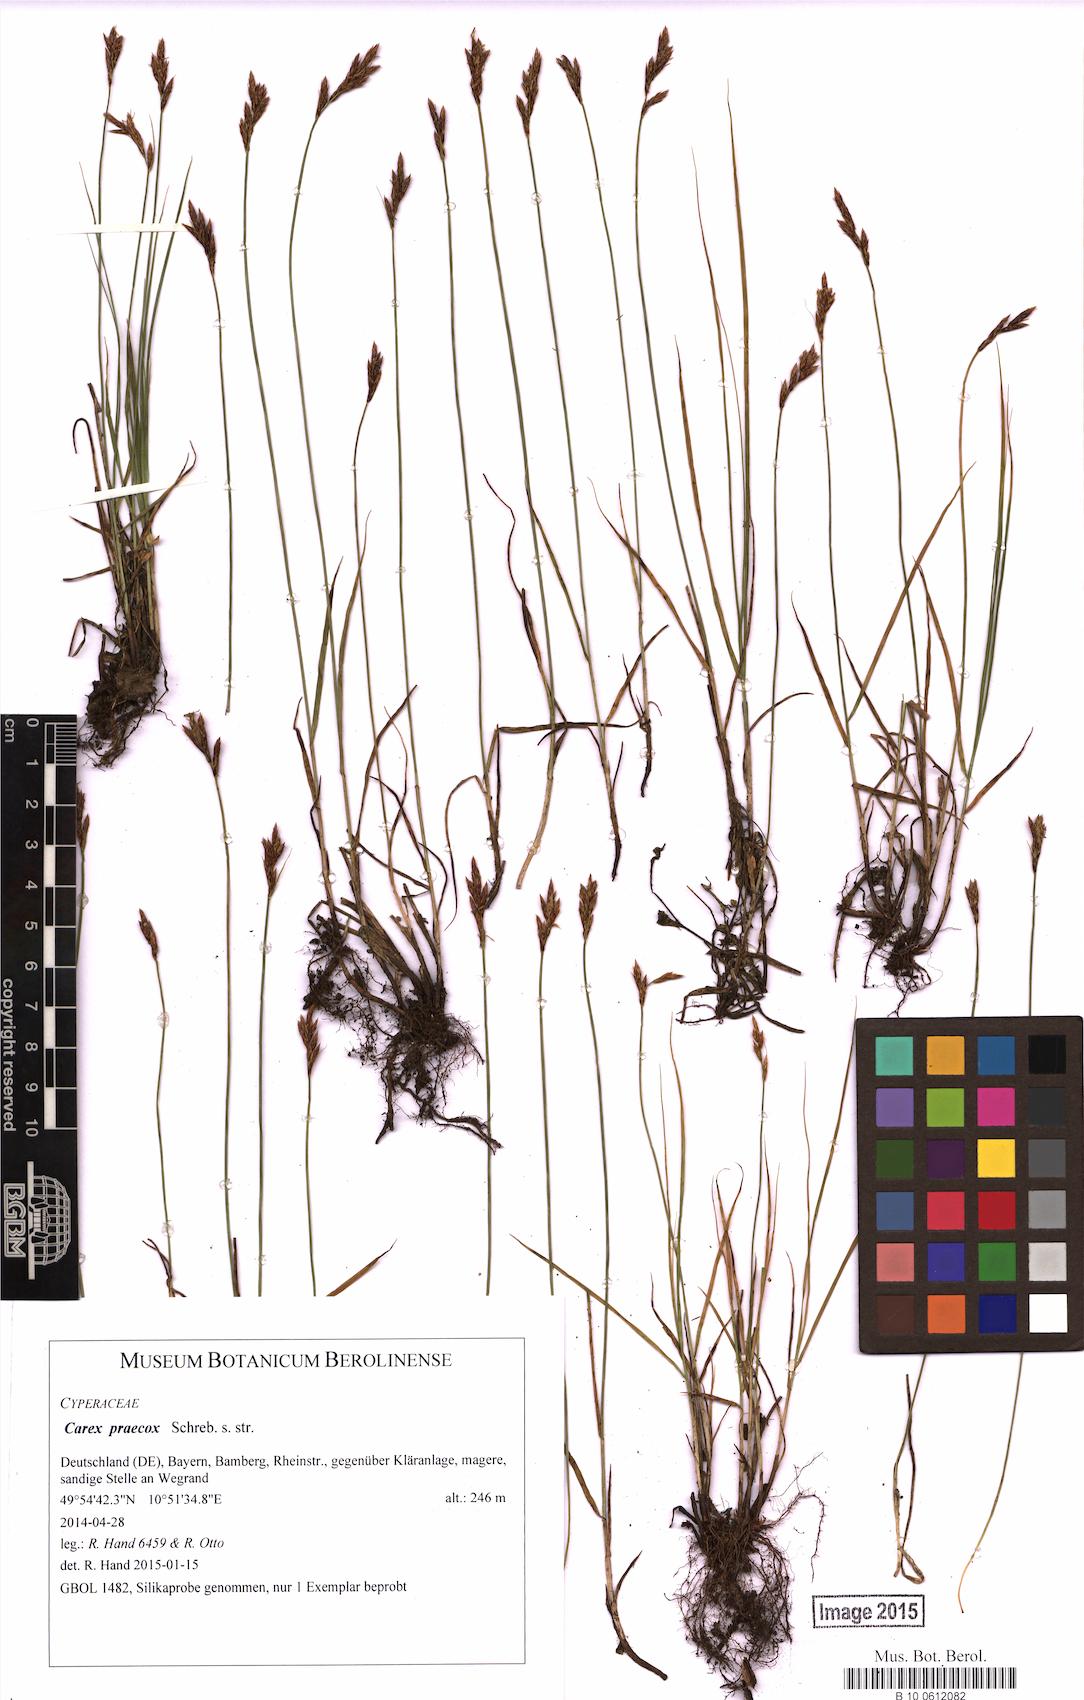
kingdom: Plantae
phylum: Tracheophyta
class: Liliopsida
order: Poales
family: Cyperaceae
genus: Carex
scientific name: Carex praecox
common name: Early sedge
